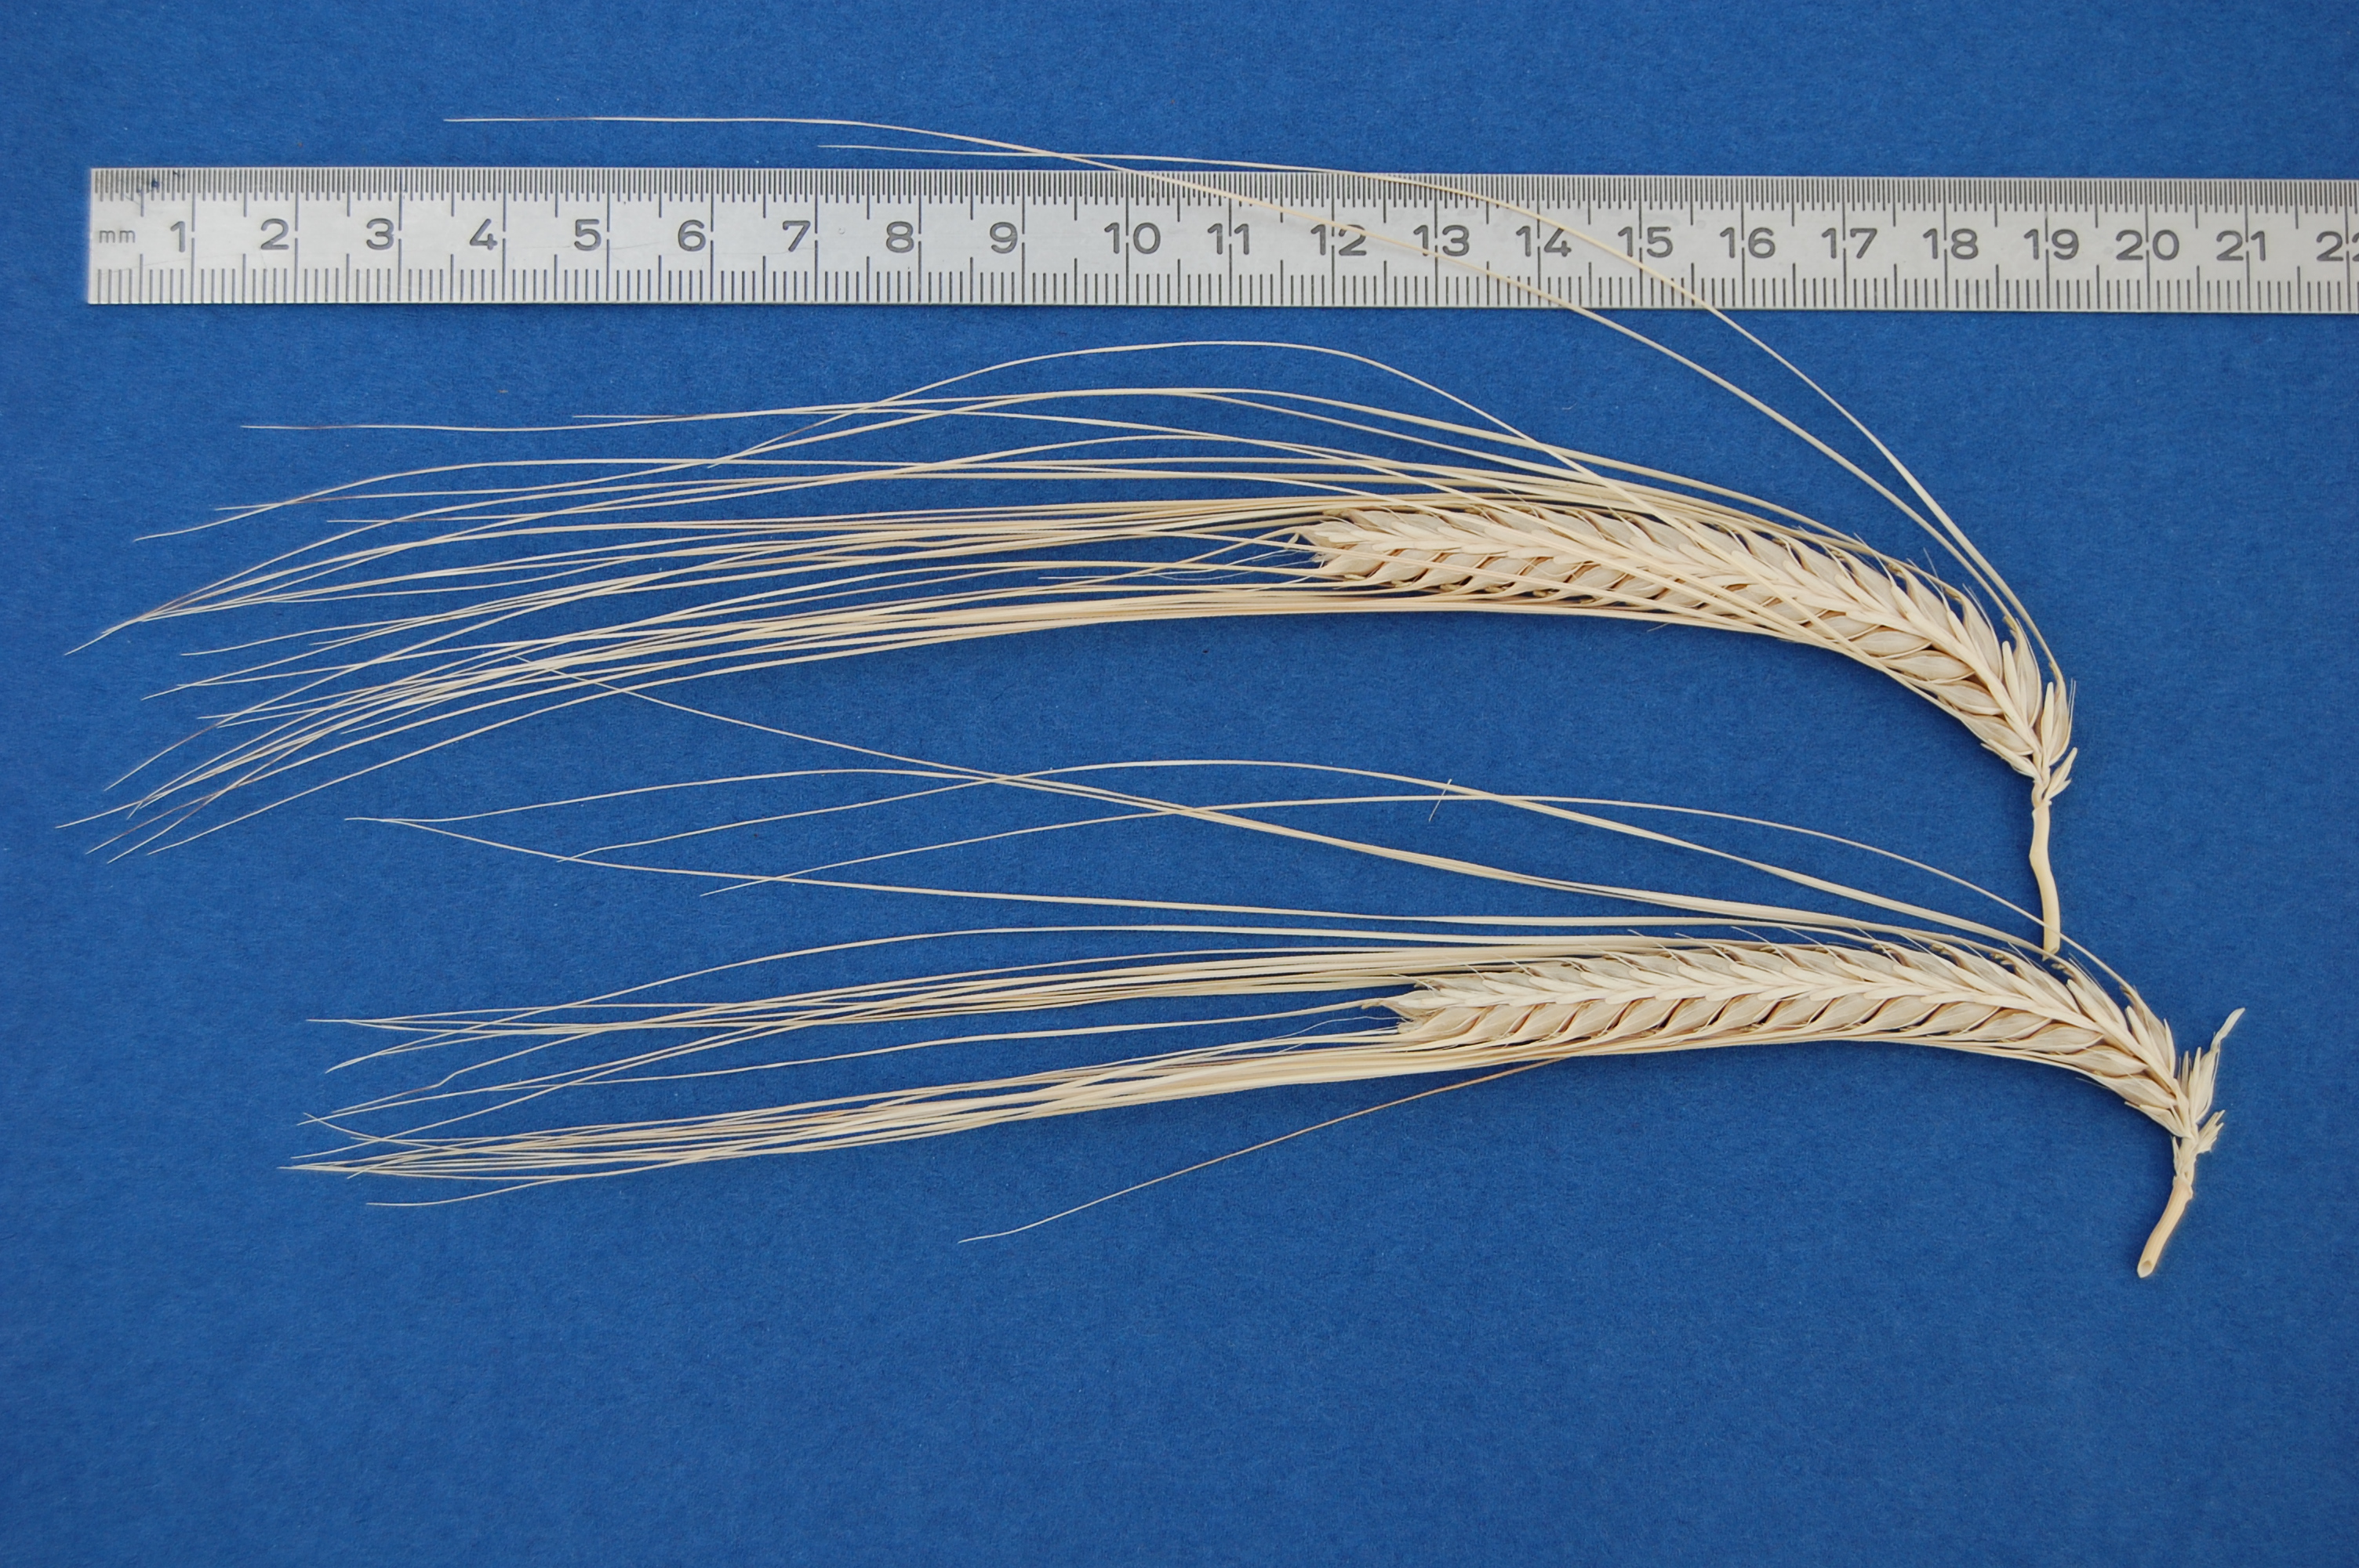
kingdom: Plantae
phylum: Tracheophyta
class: Liliopsida
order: Poales
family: Poaceae
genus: Hordeum
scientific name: Hordeum vulgare
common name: Common barley
